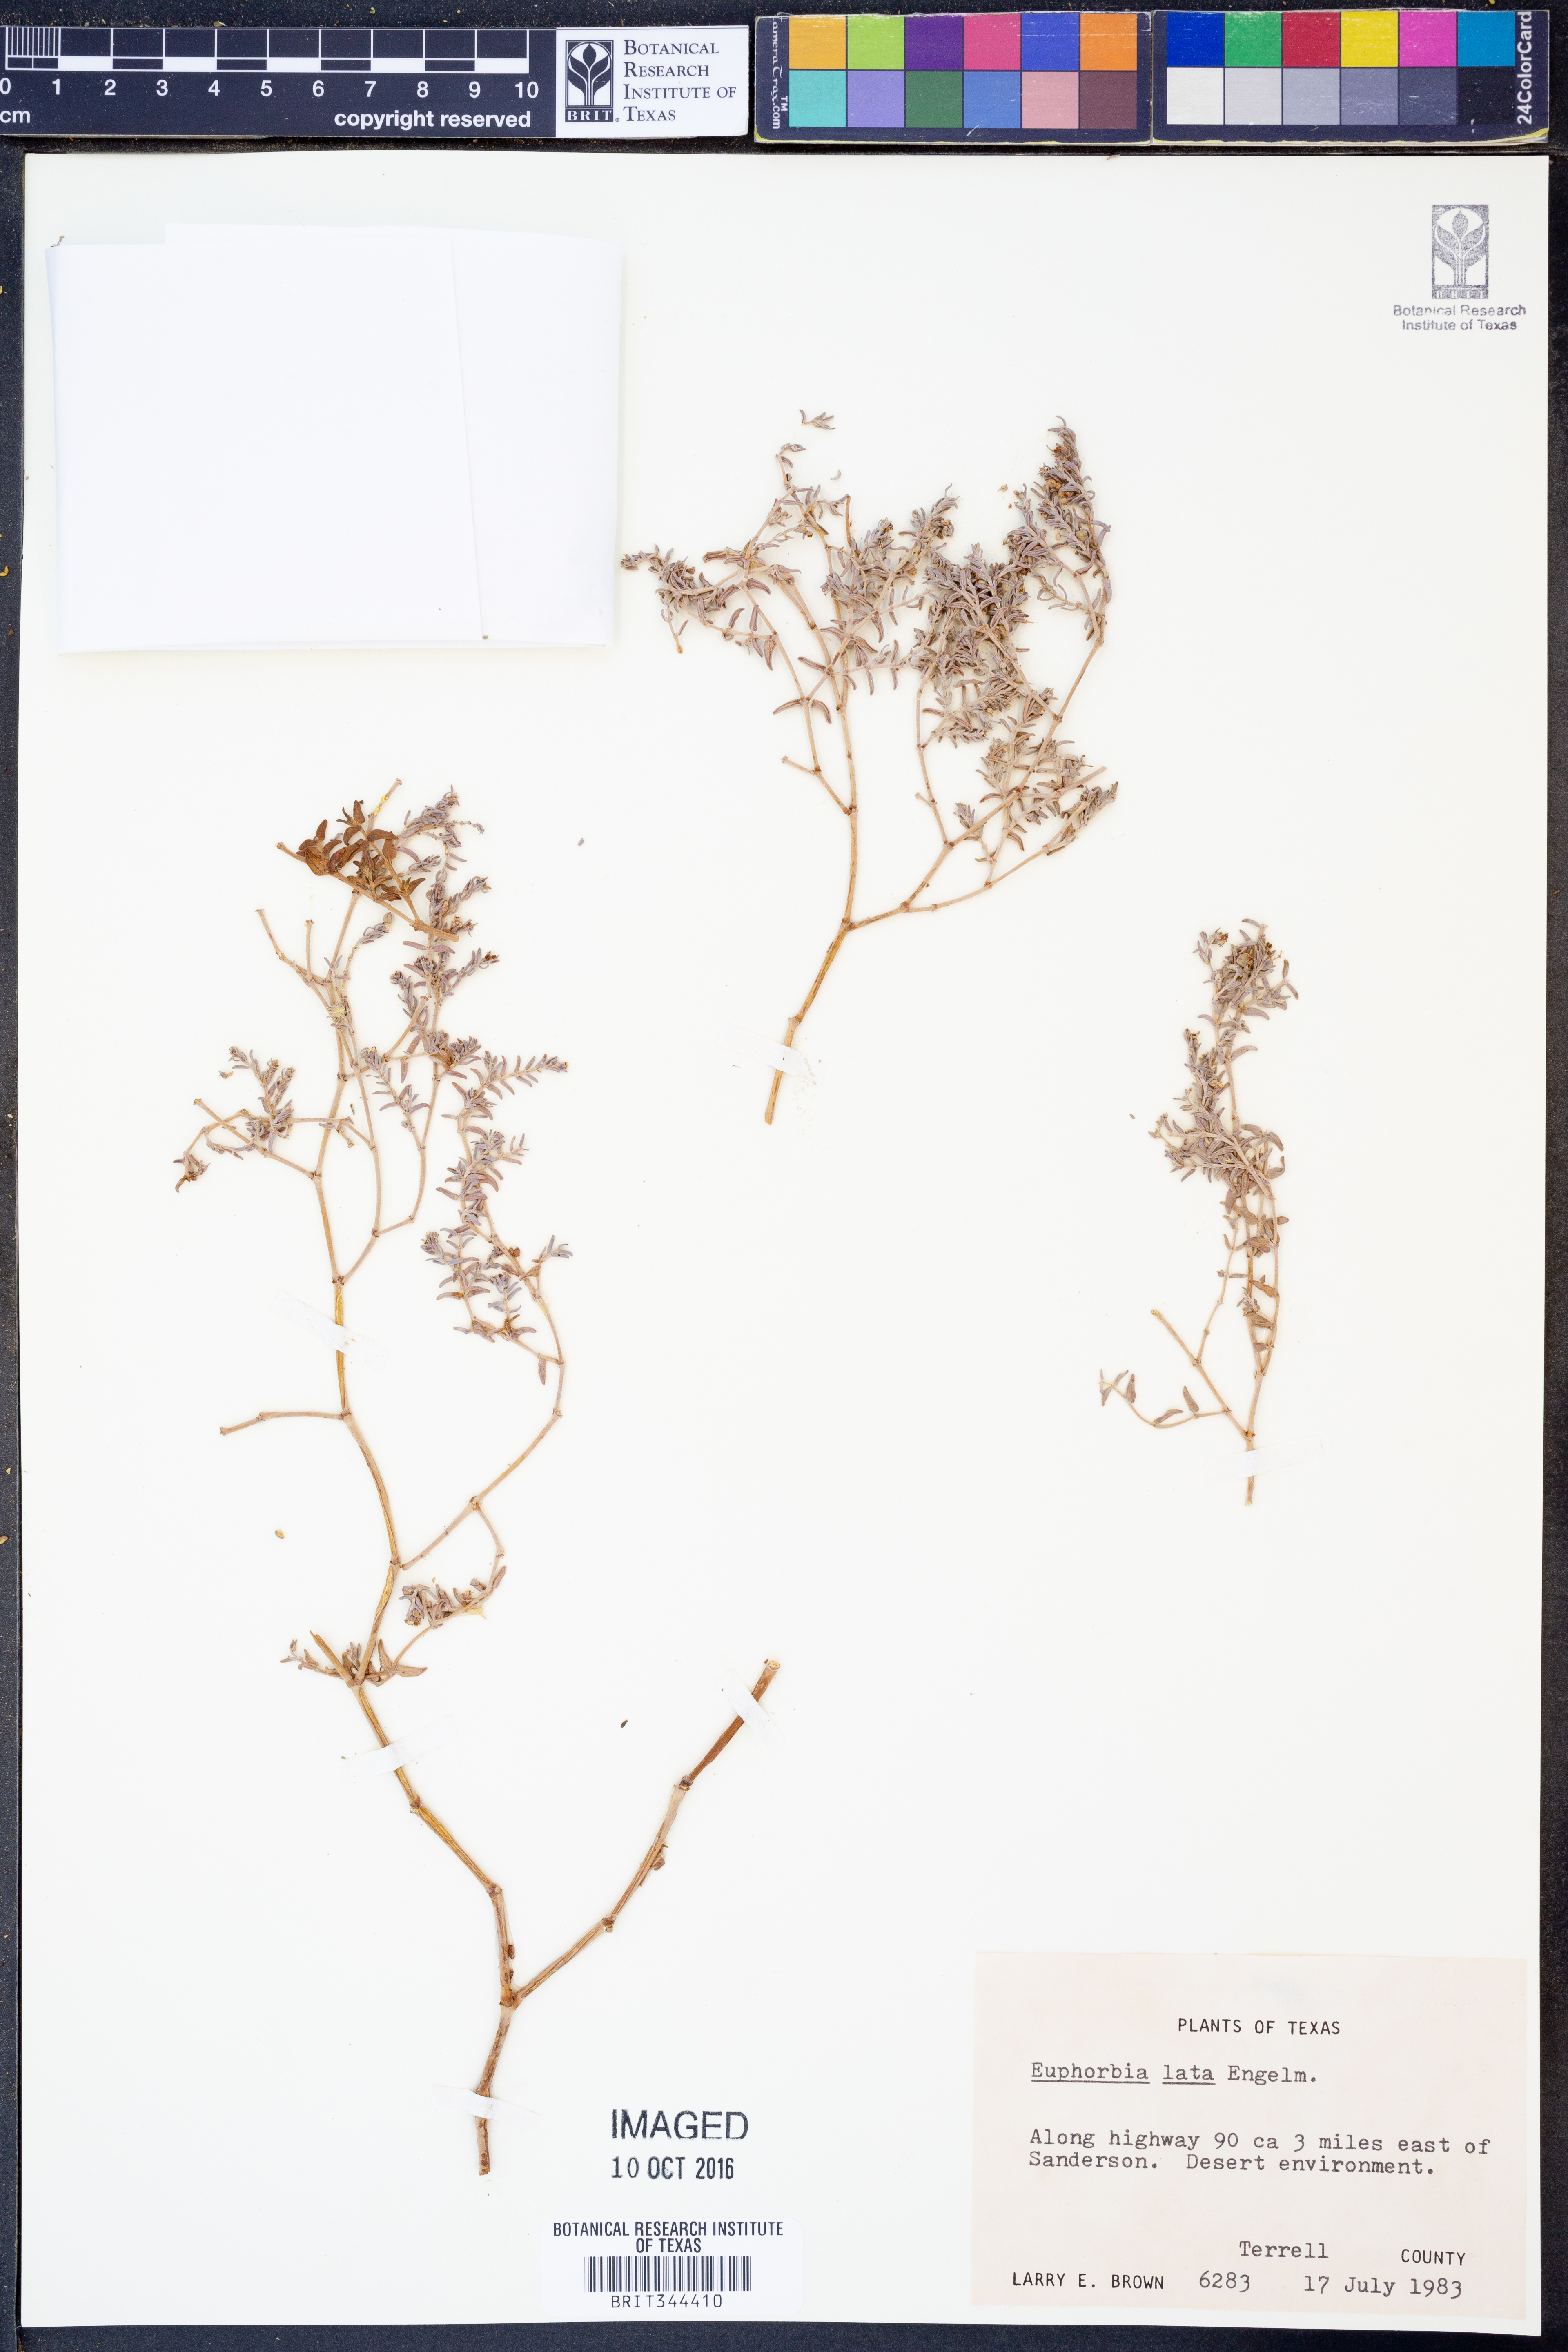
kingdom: Plantae
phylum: Tracheophyta
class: Magnoliopsida
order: Malpighiales
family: Euphorbiaceae
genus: Euphorbia
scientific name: Euphorbia lata
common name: Hoary euphorbia
